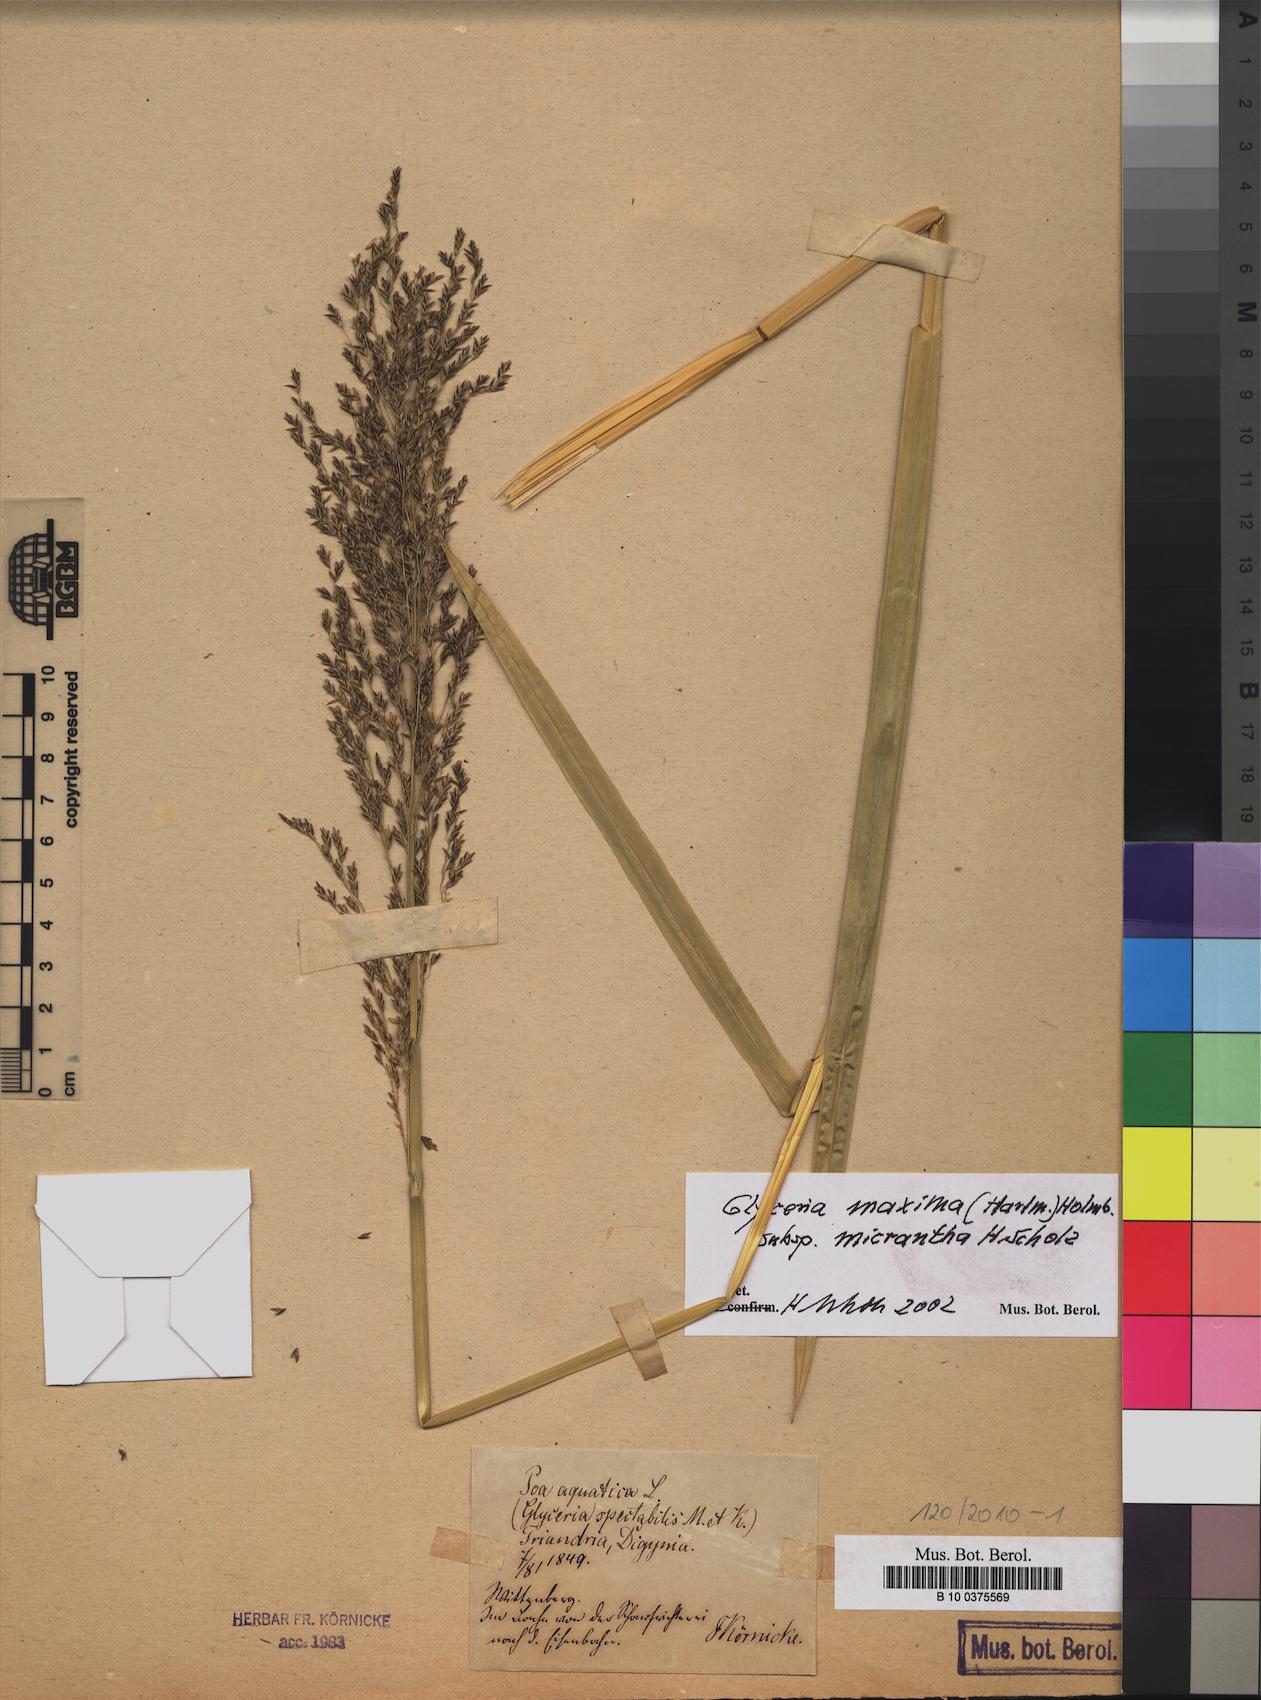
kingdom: Plantae
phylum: Tracheophyta
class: Liliopsida
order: Poales
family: Poaceae
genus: Glyceria
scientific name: Glyceria maxima
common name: Reed mannagrass
